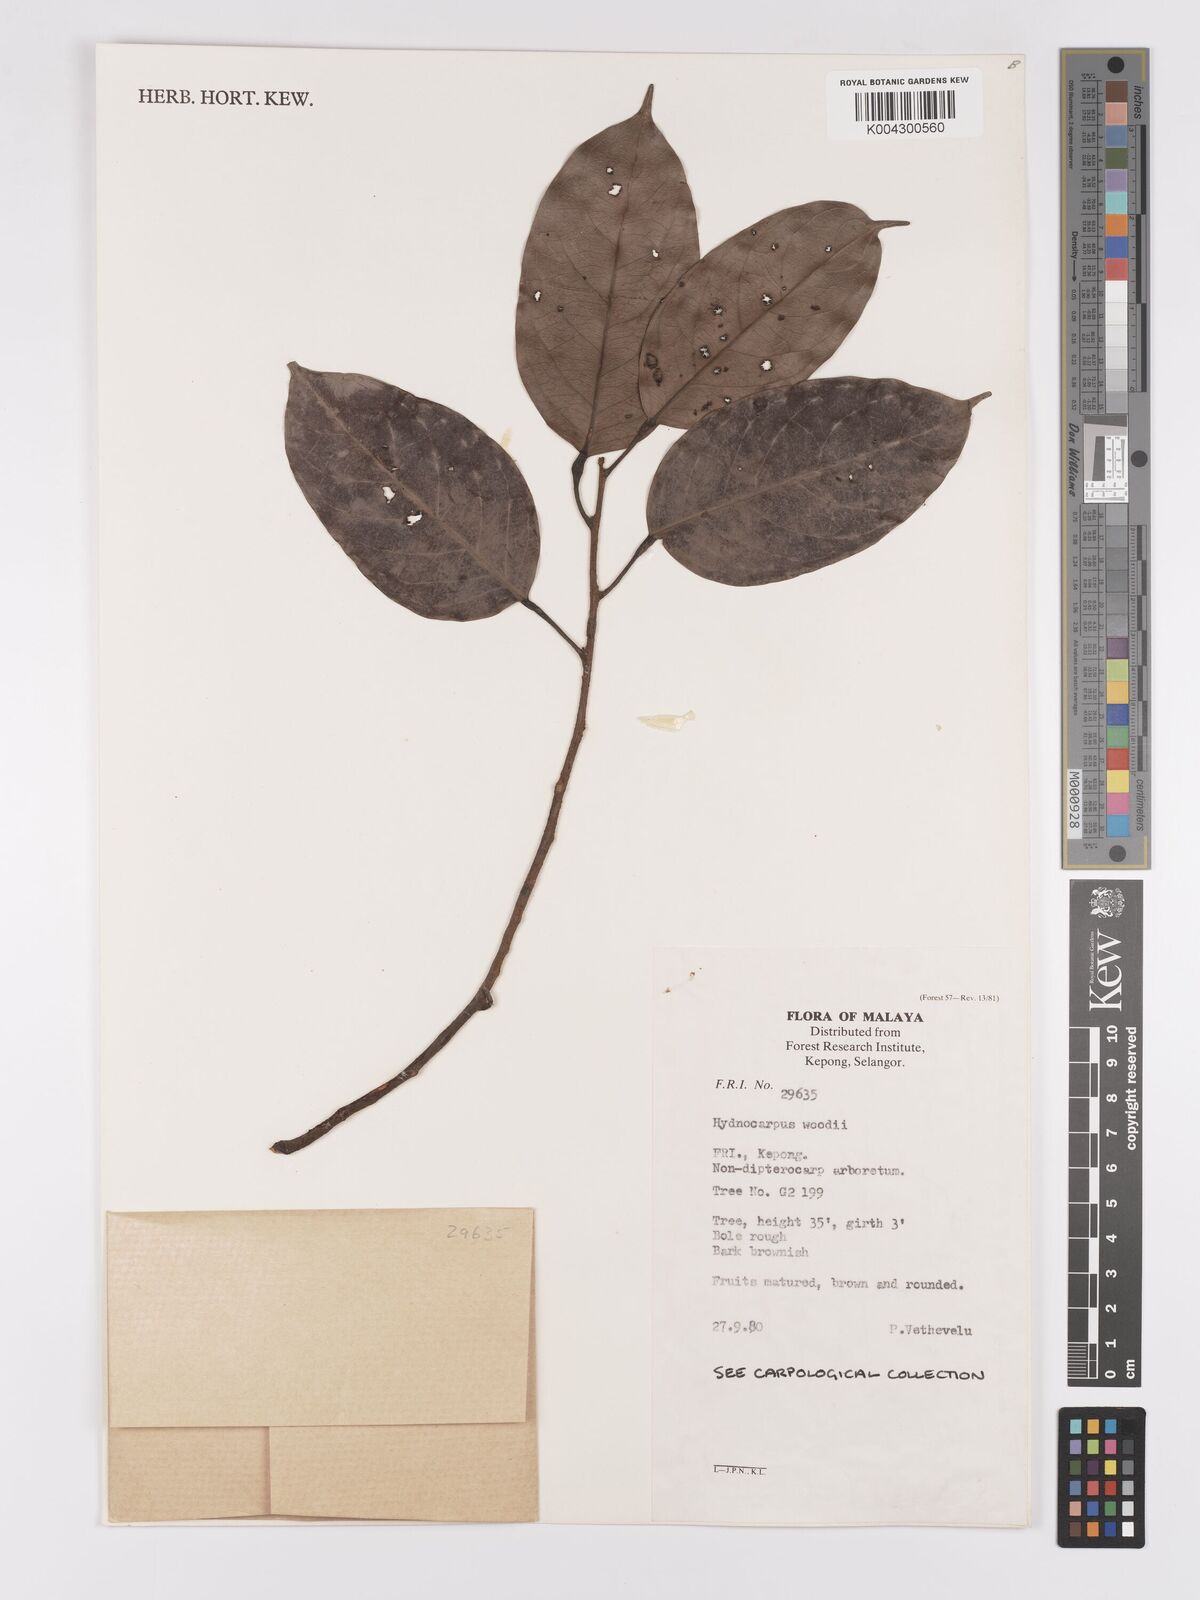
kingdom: Plantae
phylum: Tracheophyta
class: Magnoliopsida
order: Malpighiales
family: Achariaceae
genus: Hydnocarpus
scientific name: Hydnocarpus woodii
